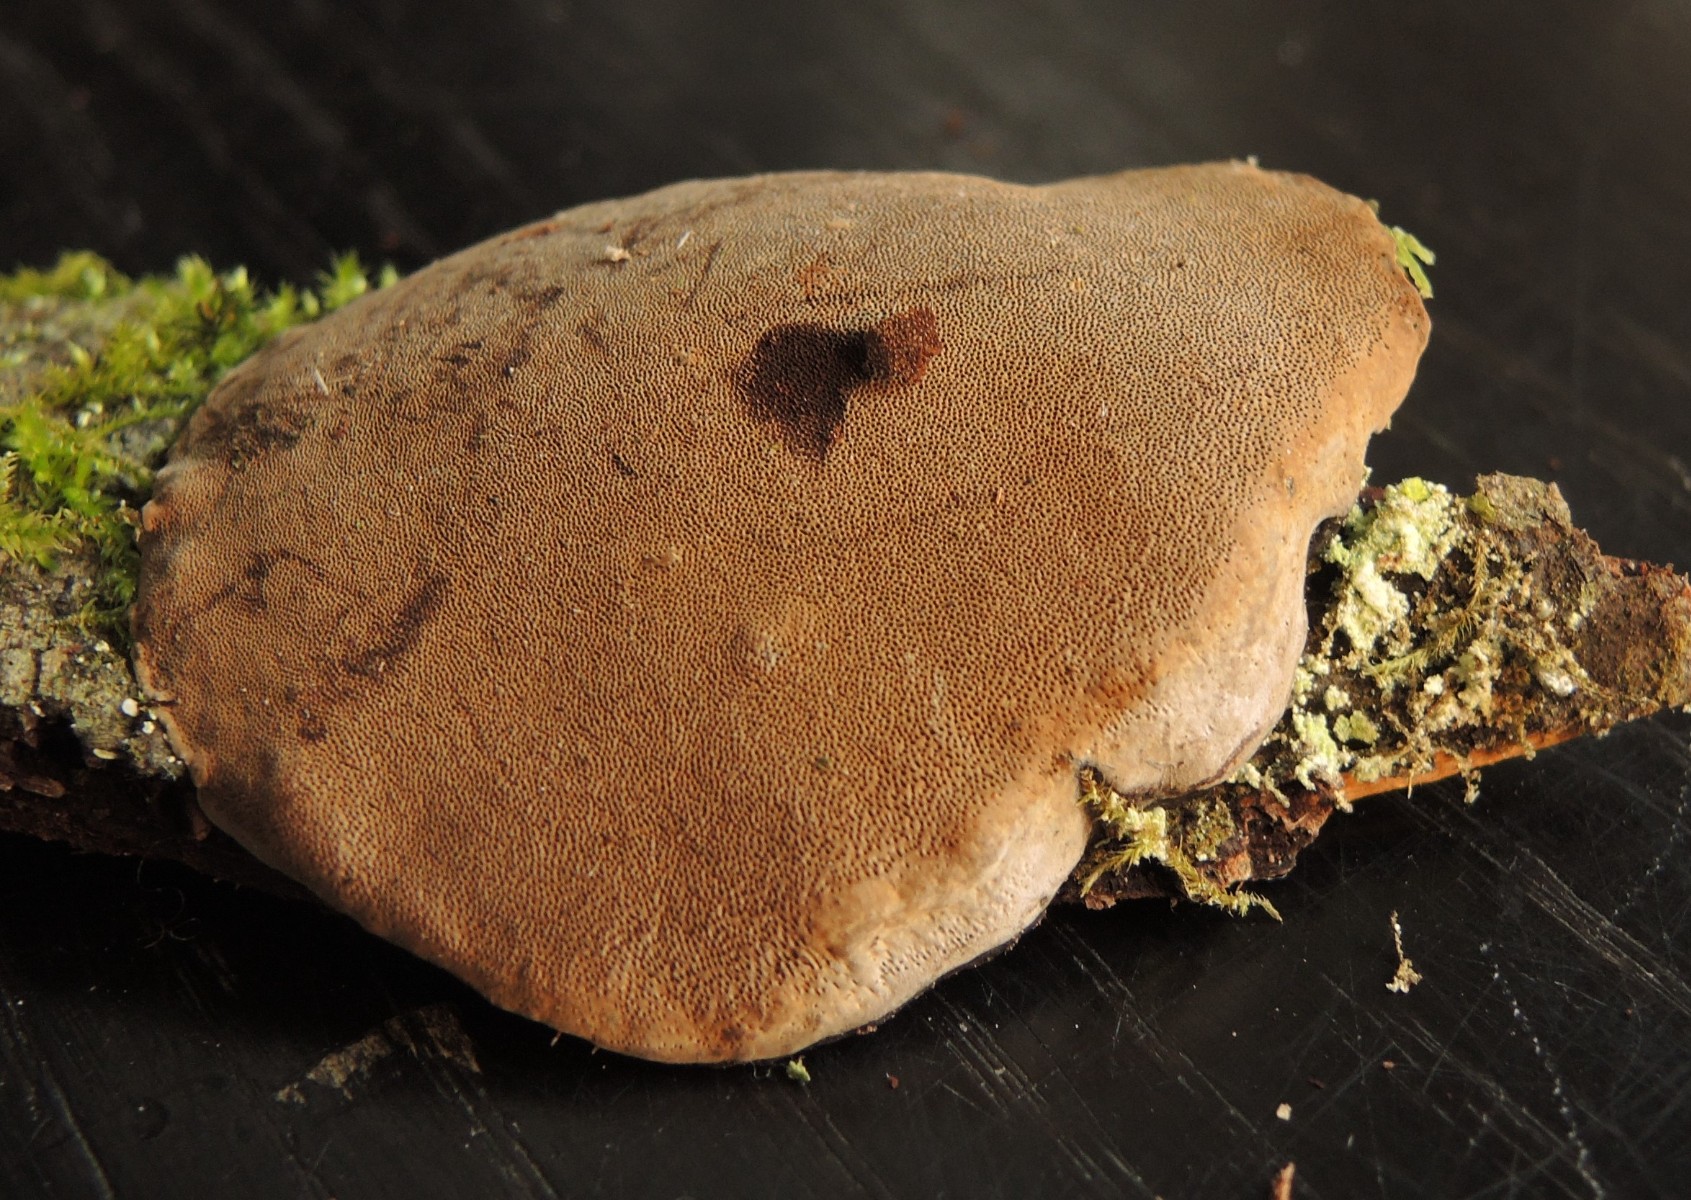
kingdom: Fungi
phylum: Basidiomycota
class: Agaricomycetes
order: Hymenochaetales
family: Hymenochaetaceae
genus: Fomitiporia
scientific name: Fomitiporia punctata
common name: pude-ildporesvamp
